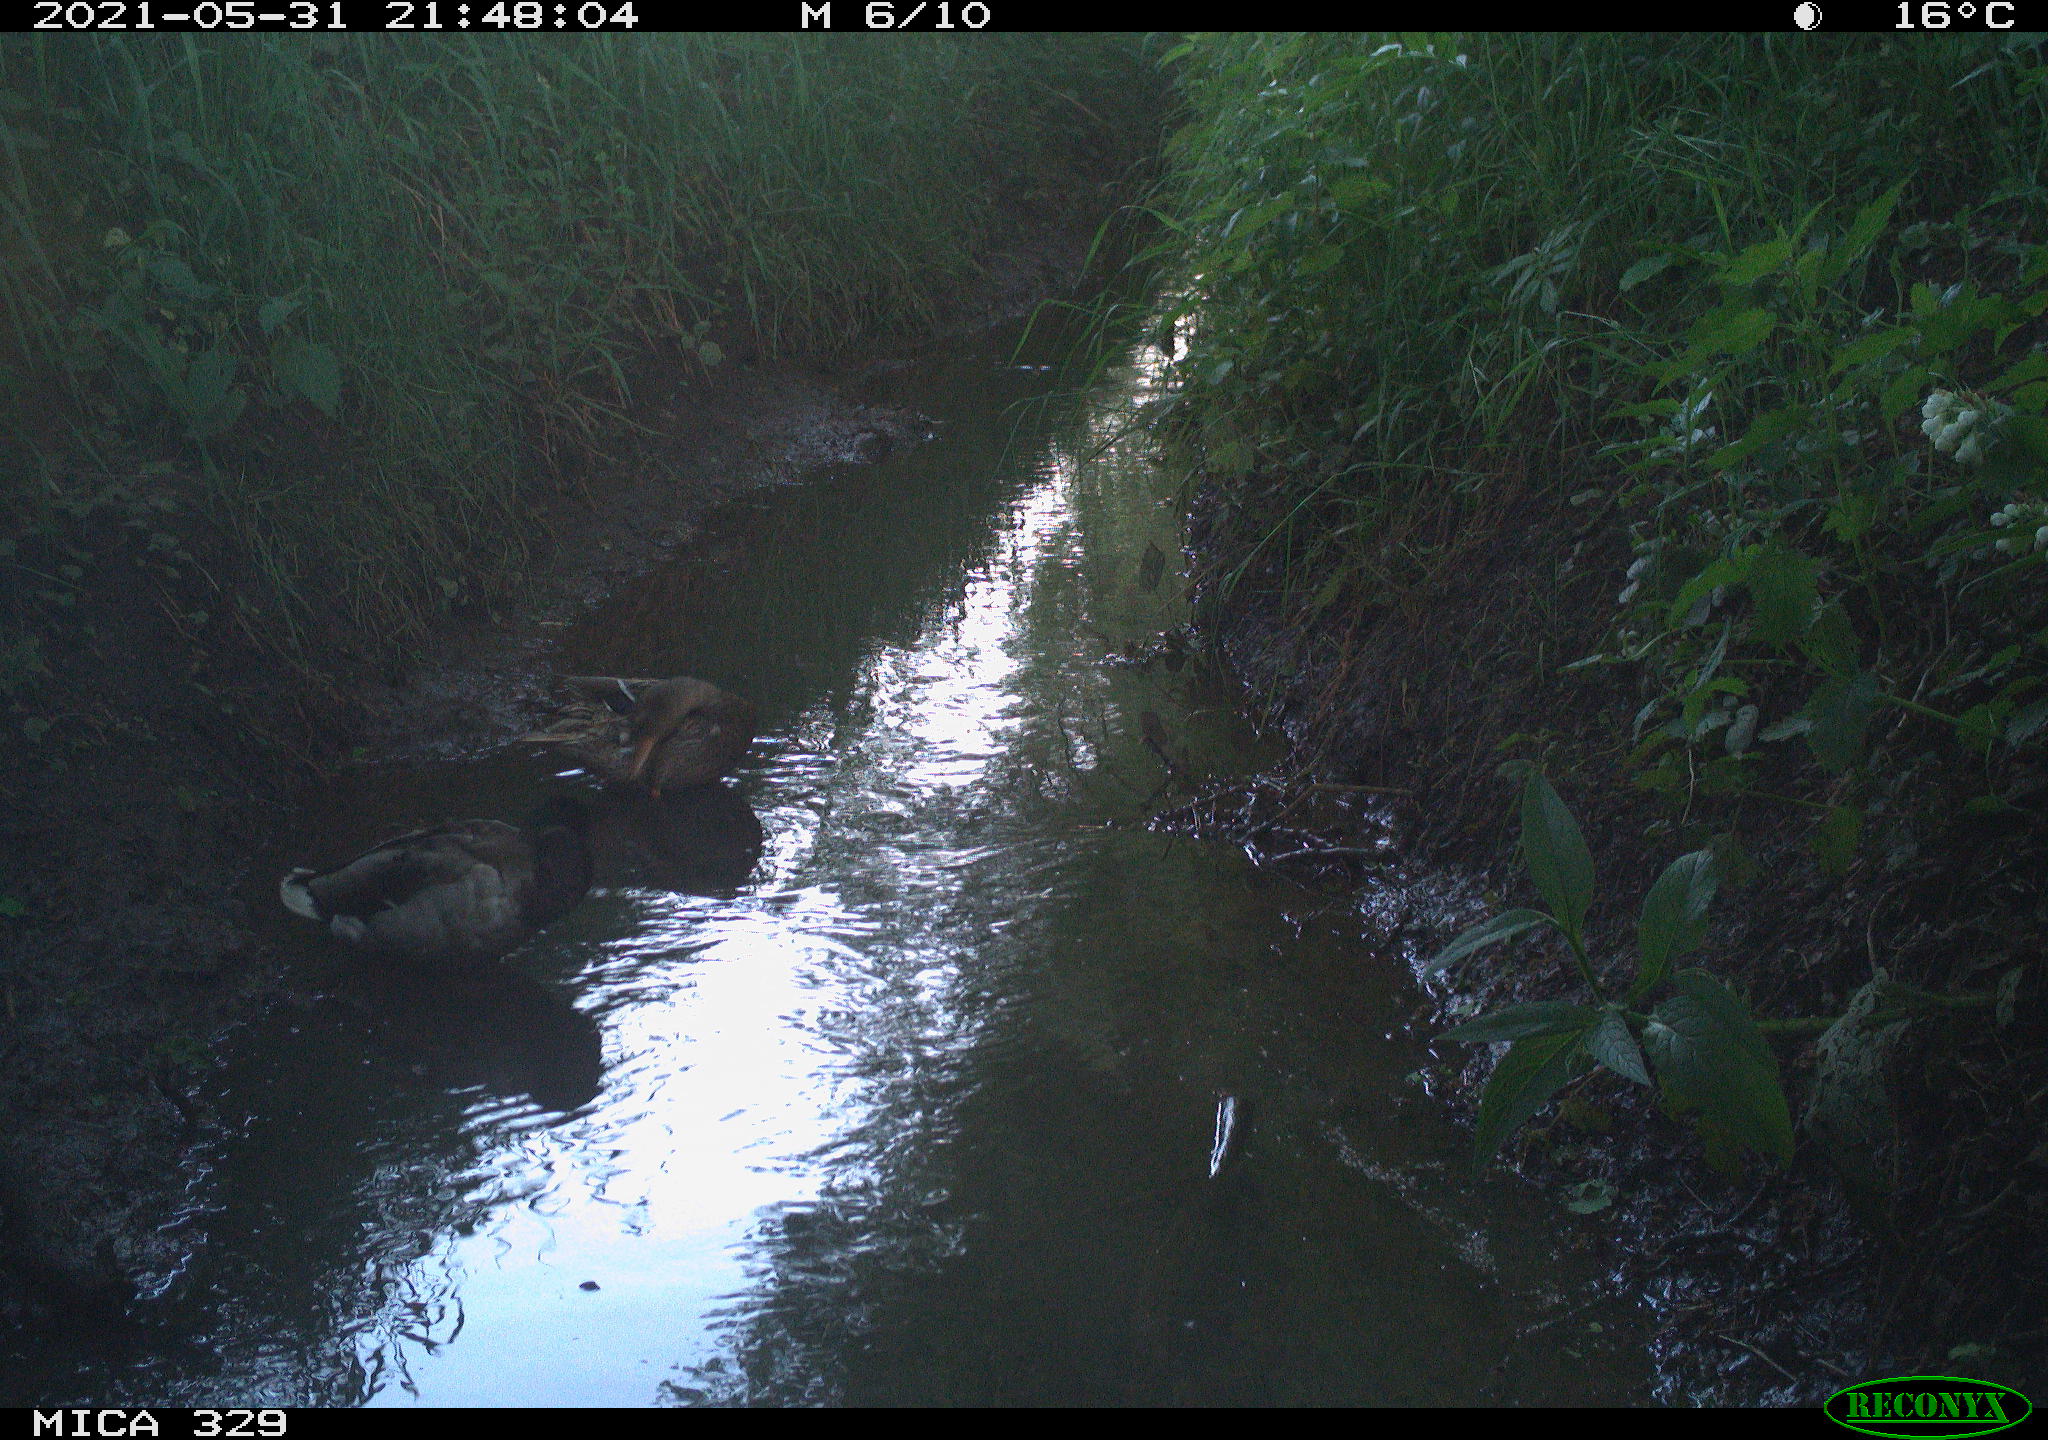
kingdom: Animalia
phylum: Chordata
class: Aves
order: Anseriformes
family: Anatidae
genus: Anas
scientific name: Anas platyrhynchos
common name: Mallard
